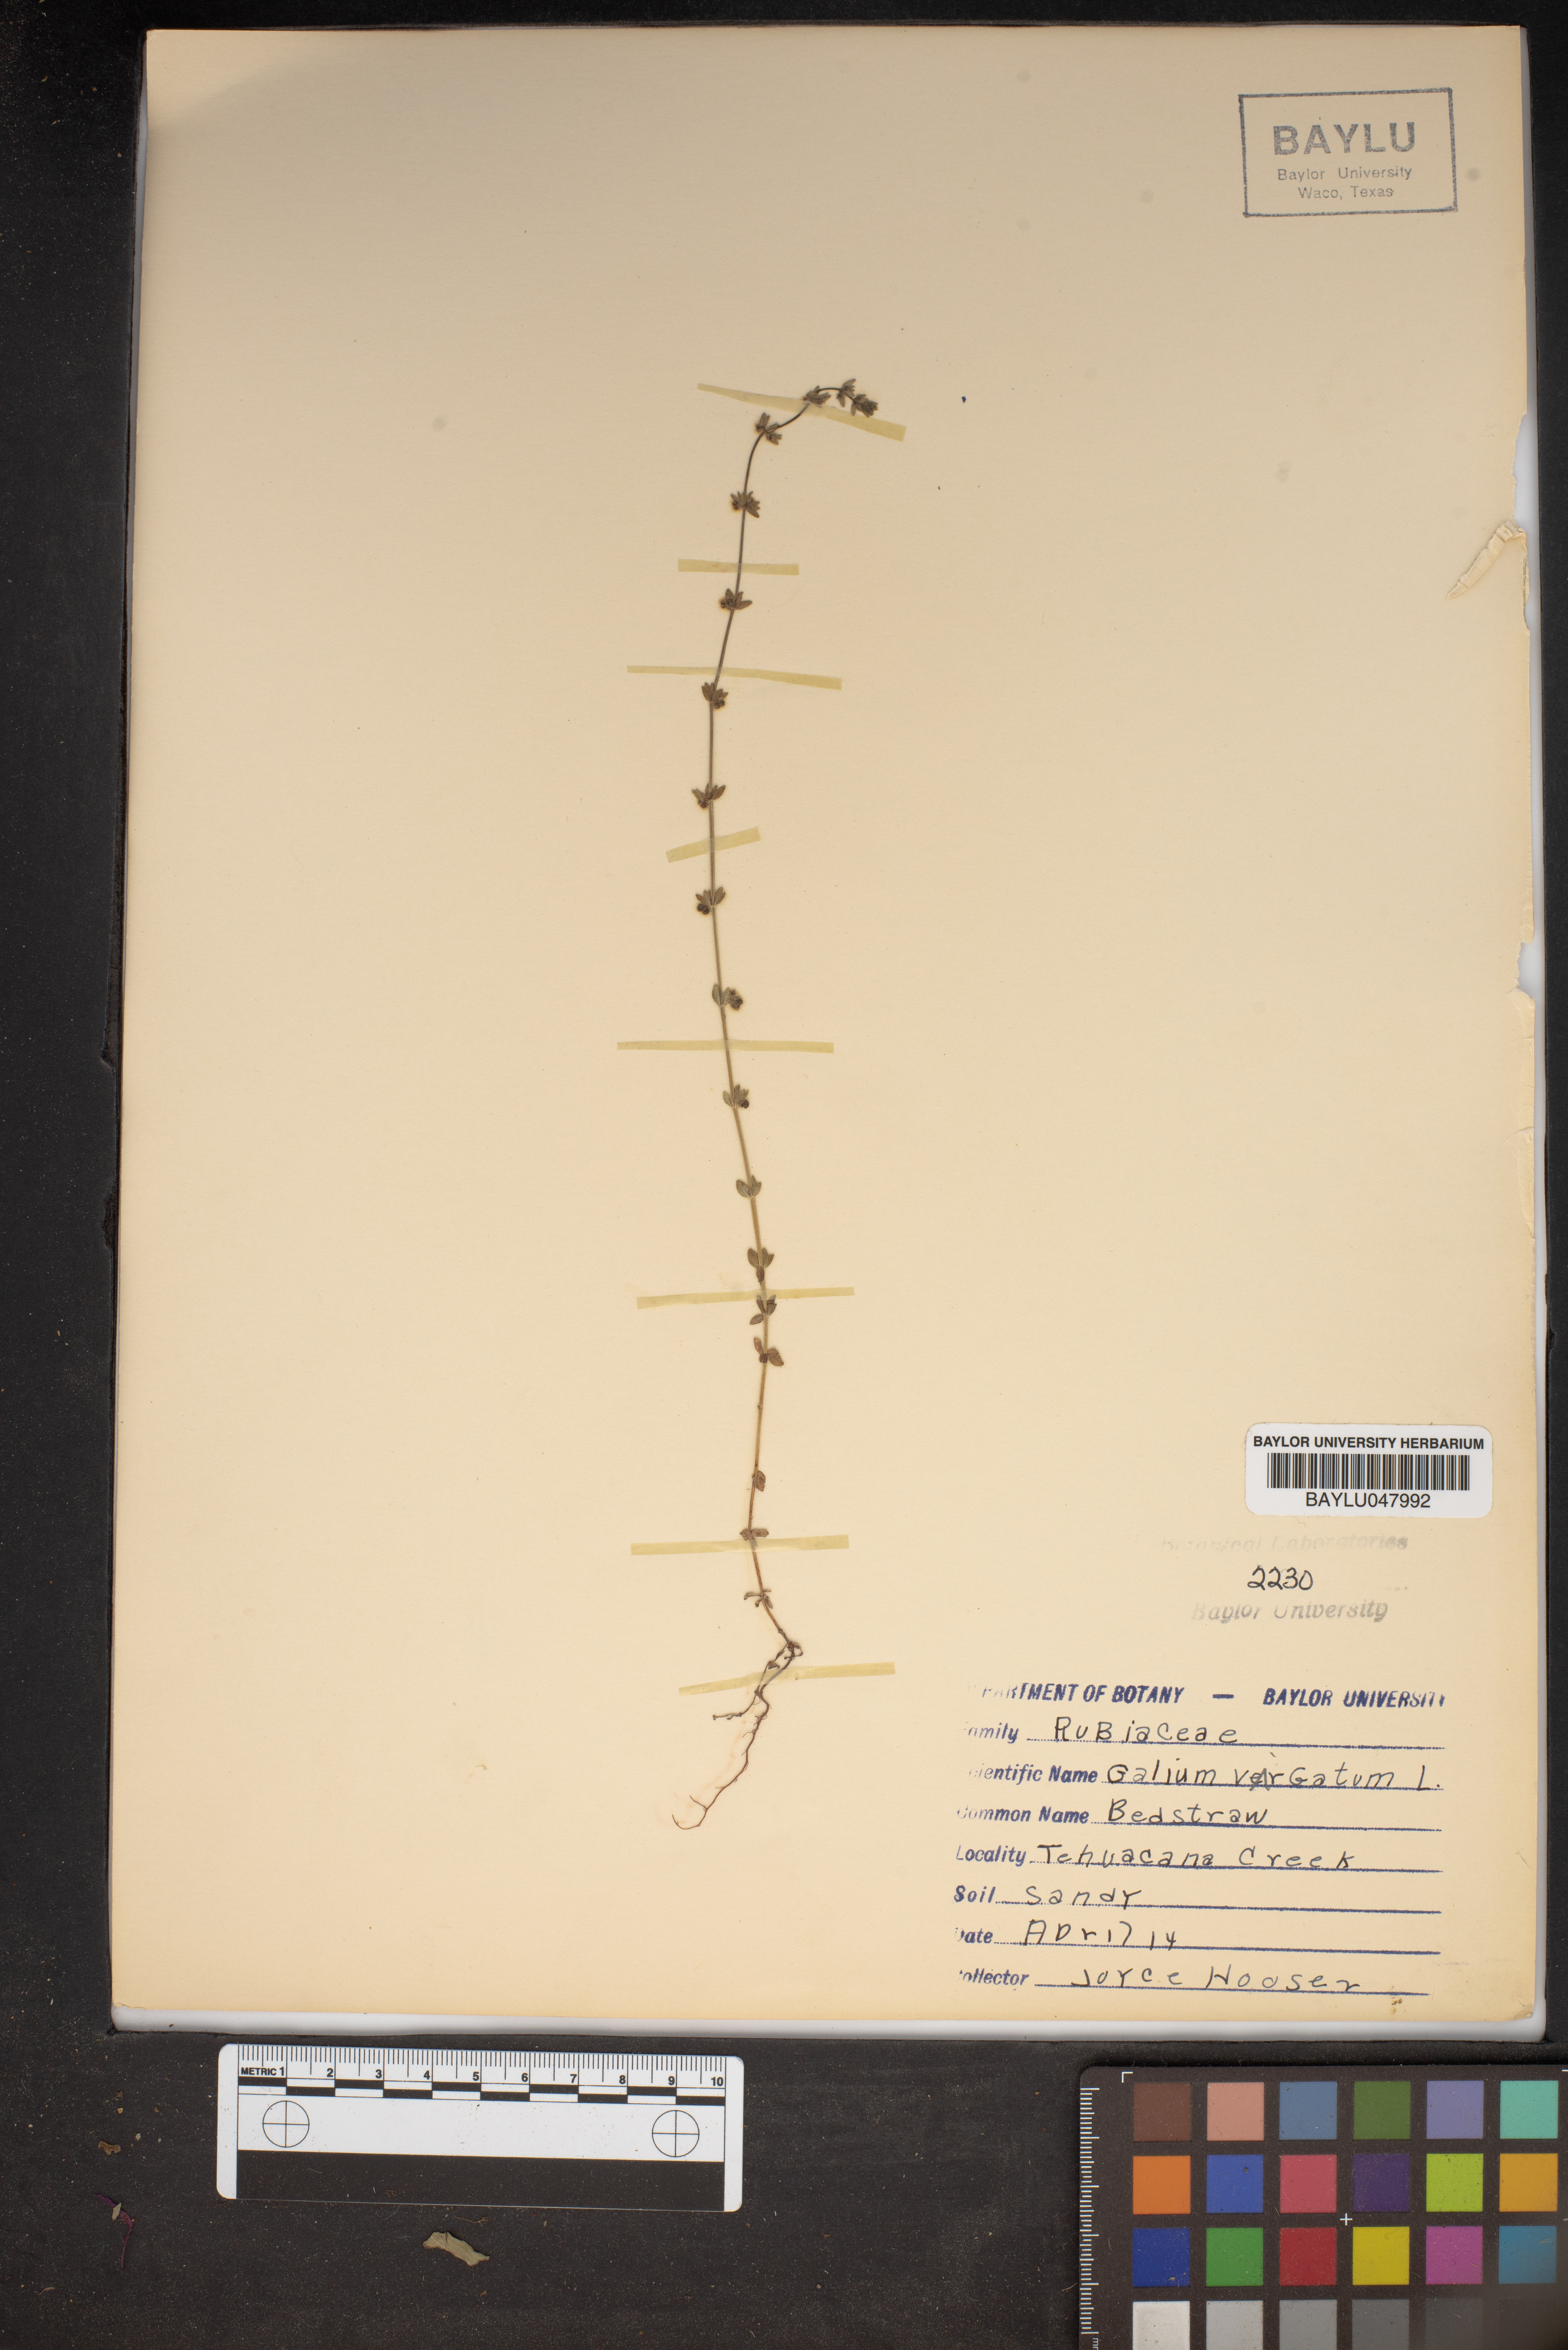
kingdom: Plantae
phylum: Tracheophyta
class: Magnoliopsida
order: Gentianales
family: Rubiaceae
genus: Galium
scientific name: Galium virgatum
